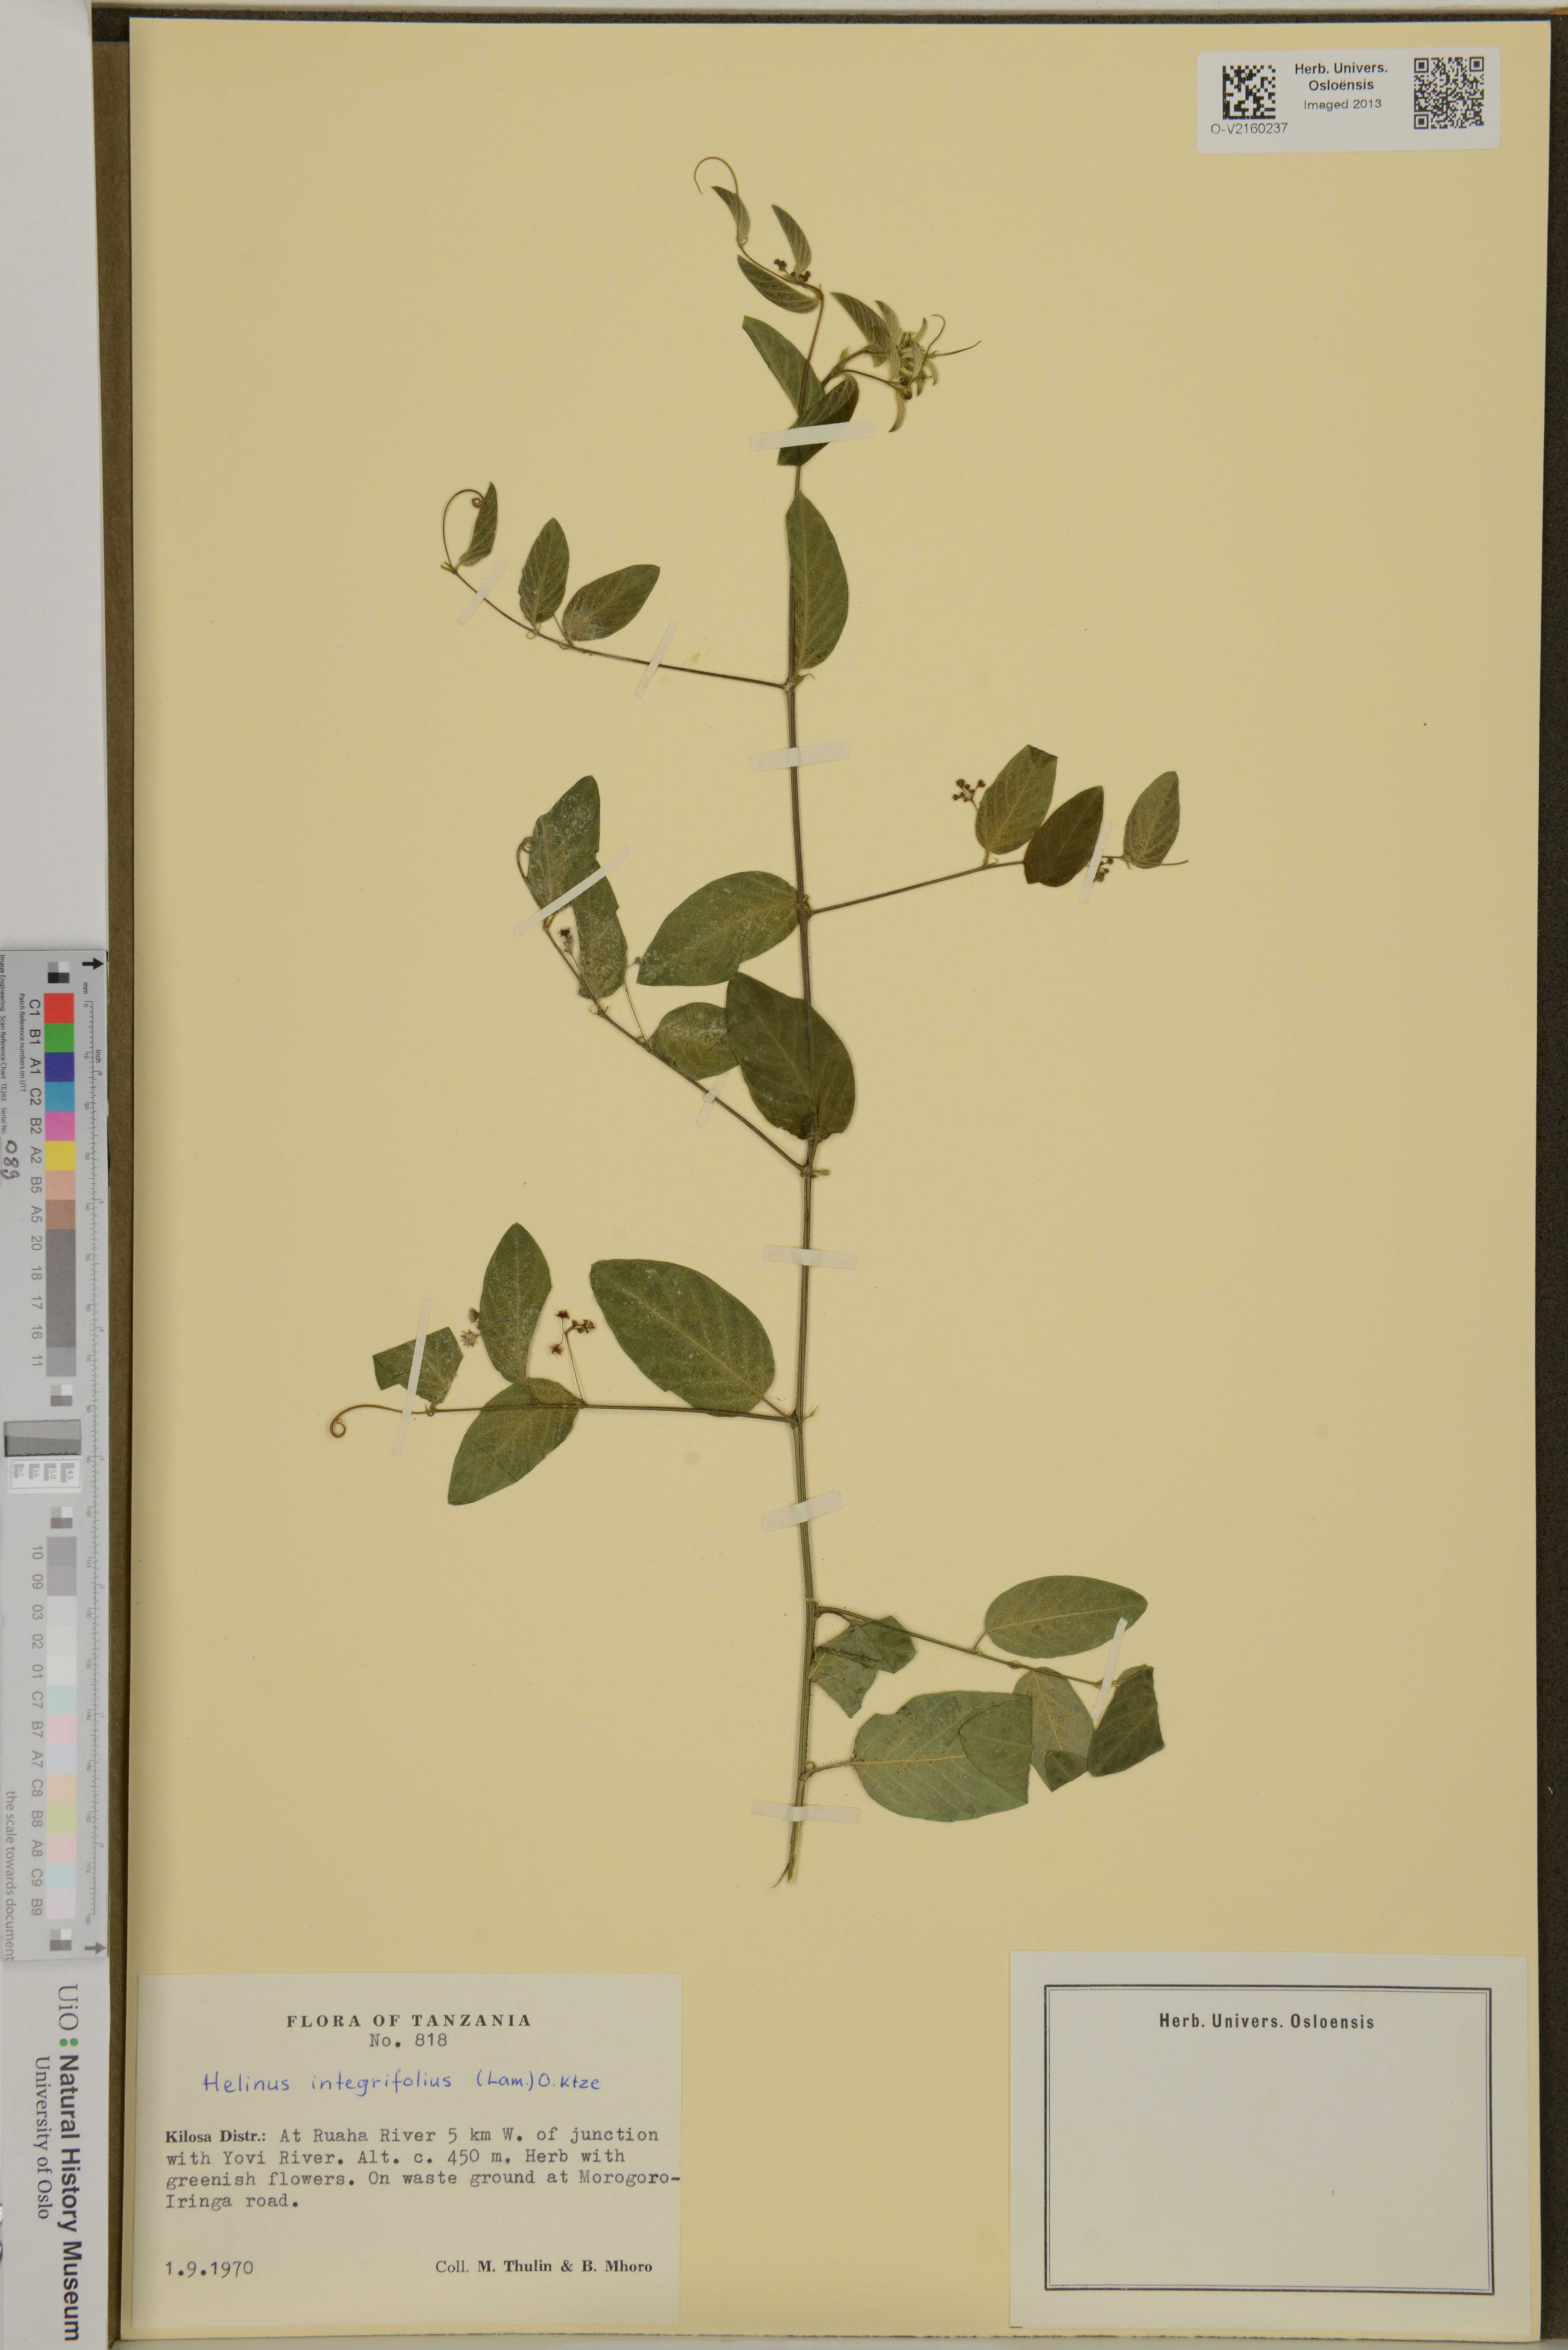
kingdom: Plantae
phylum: Tracheophyta
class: Magnoliopsida
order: Rosales
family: Rhamnaceae
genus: Helinus
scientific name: Helinus integrifolius
